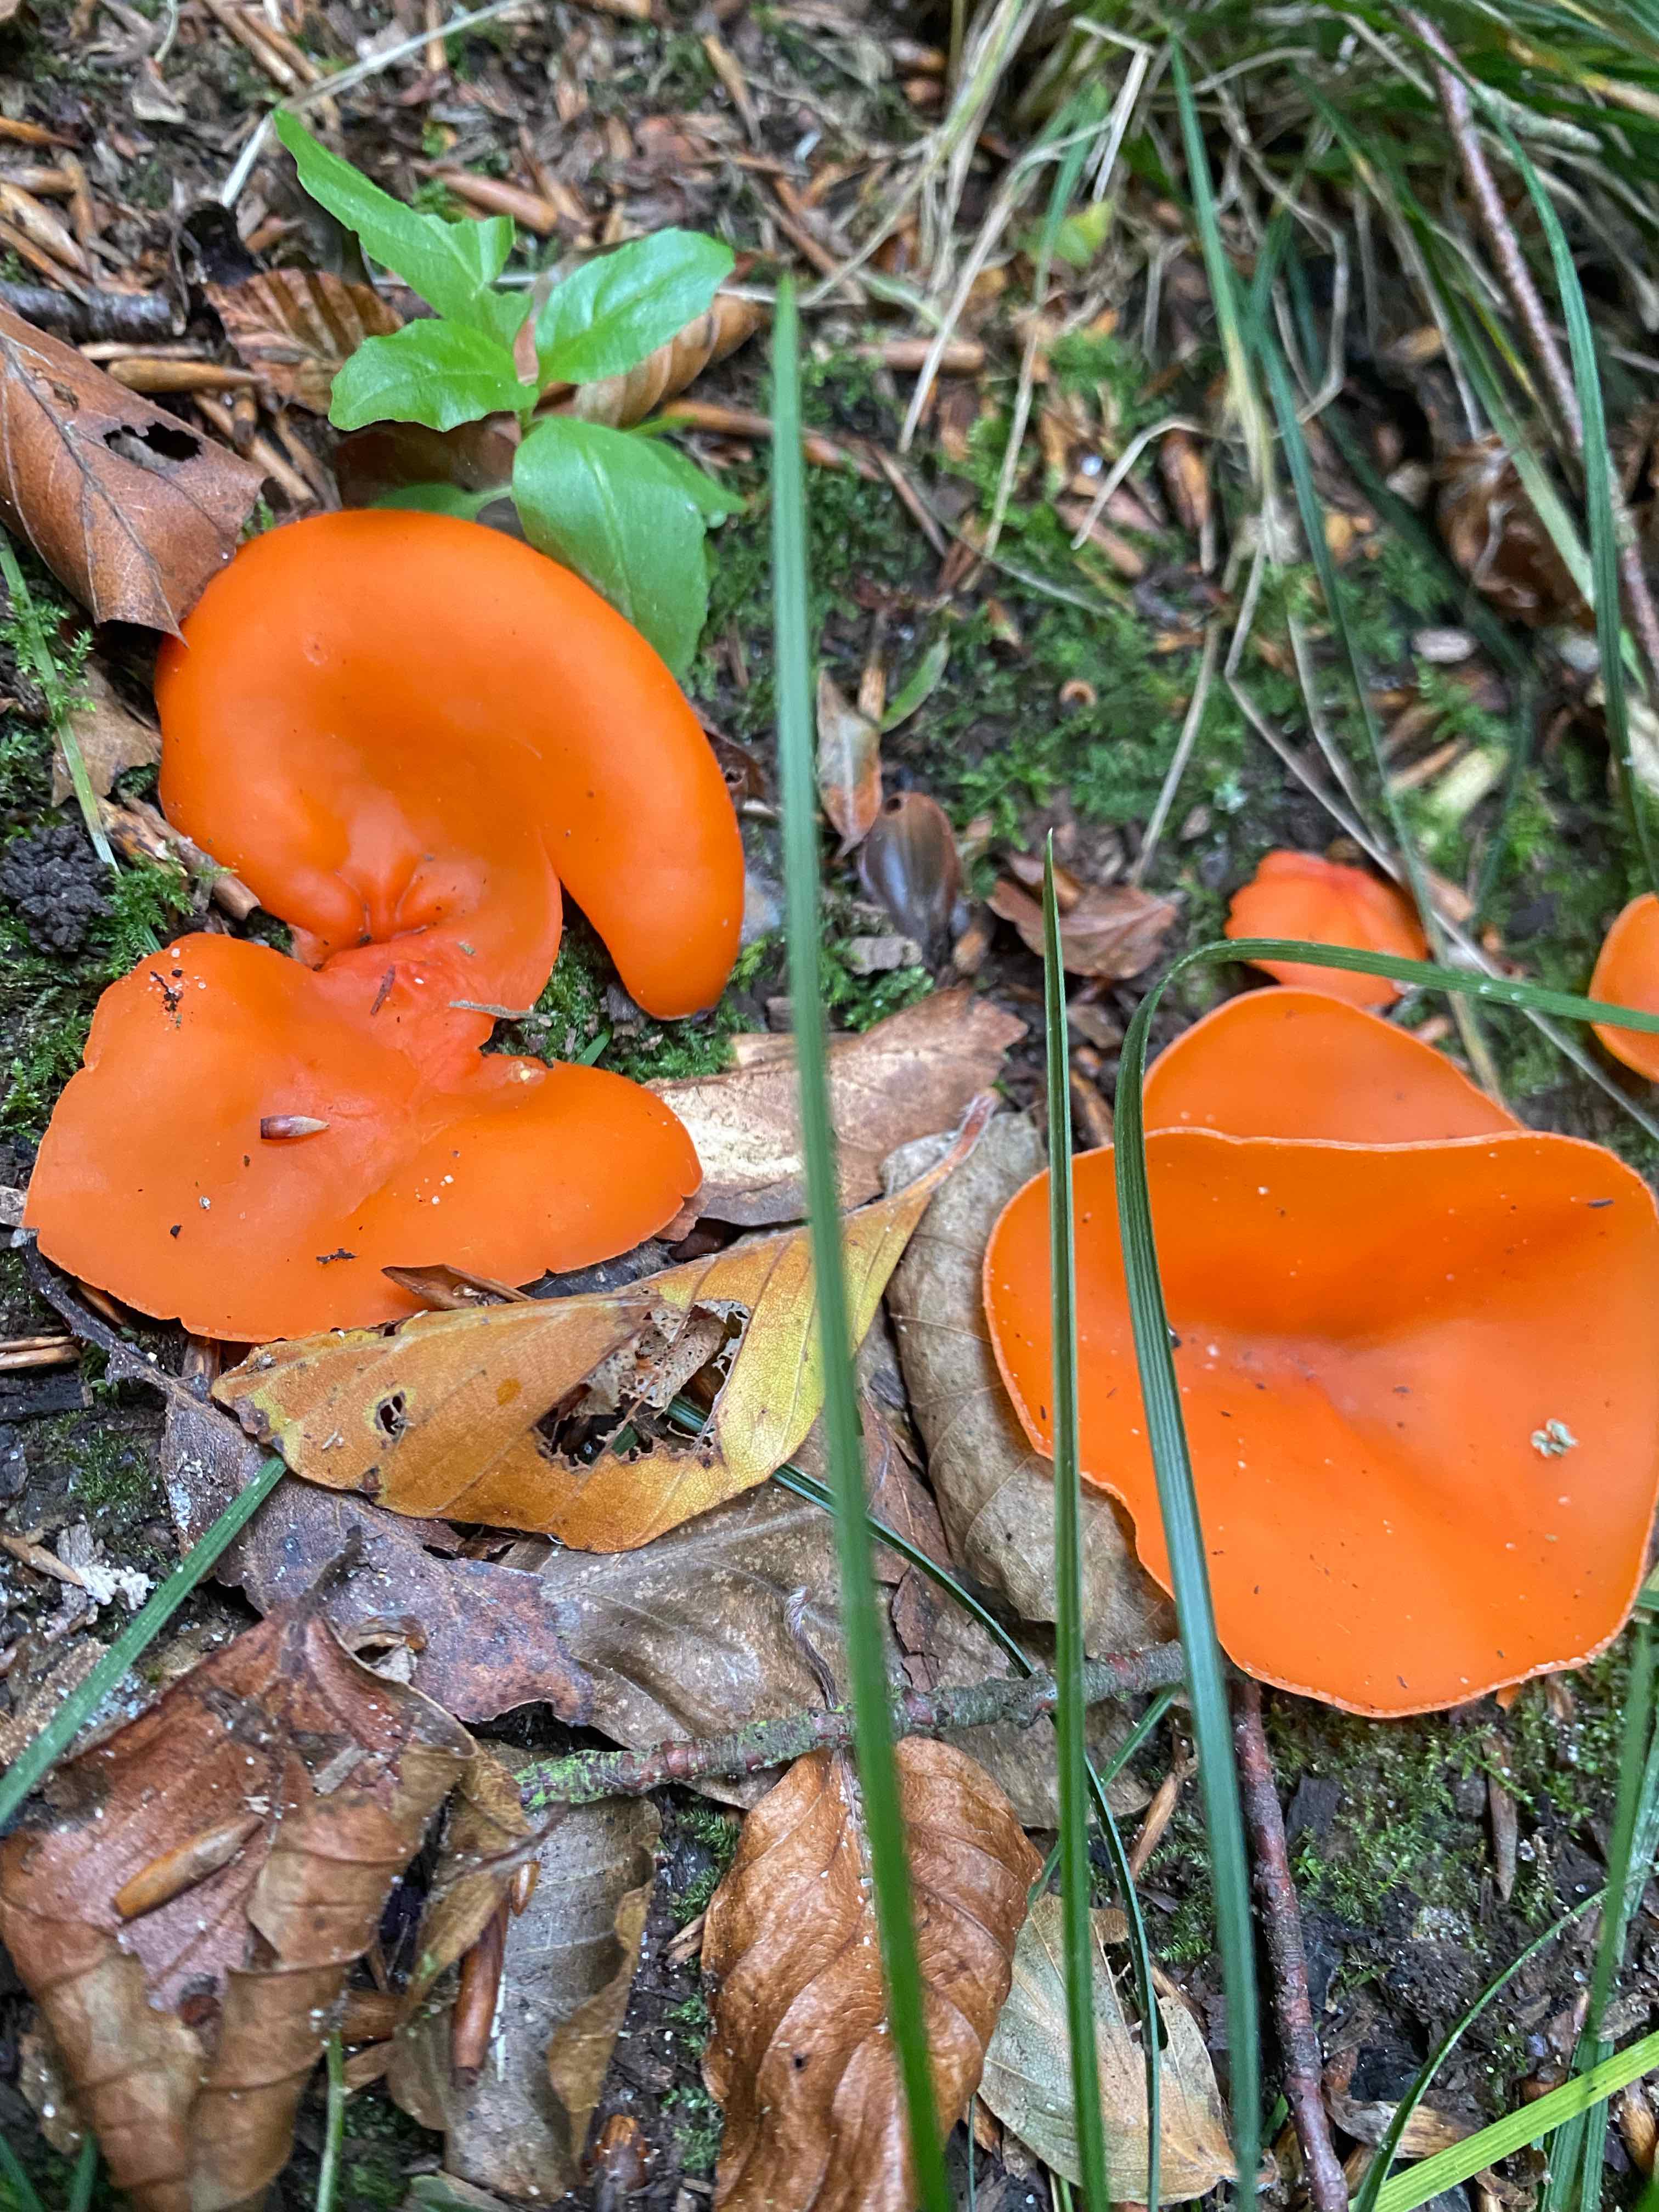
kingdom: Fungi
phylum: Ascomycota
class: Pezizomycetes
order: Pezizales
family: Pyronemataceae
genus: Aleuria
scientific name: Aleuria
